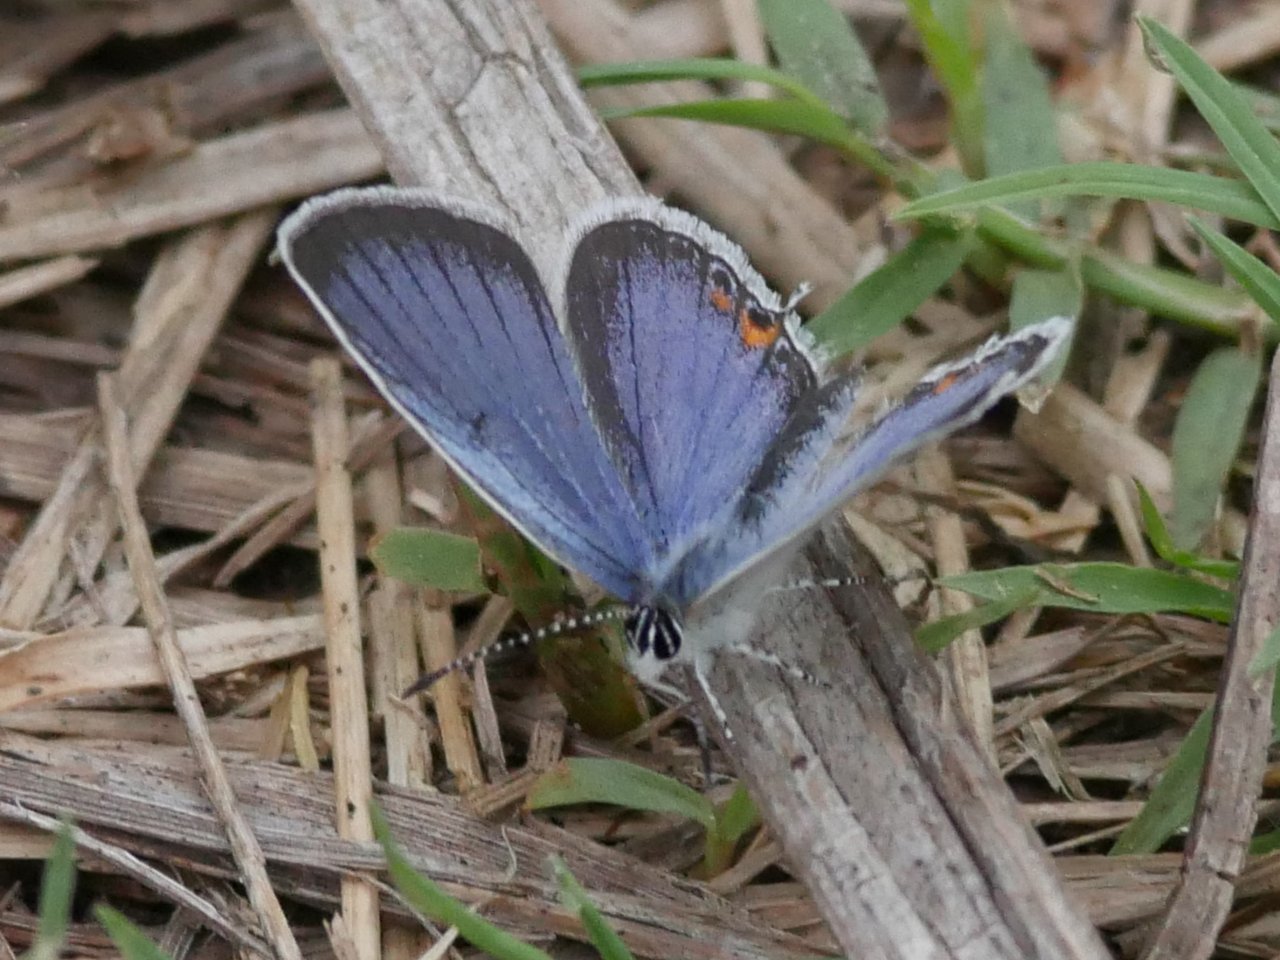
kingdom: Animalia
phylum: Arthropoda
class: Insecta
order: Lepidoptera
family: Lycaenidae
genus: Elkalyce
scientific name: Elkalyce comyntas
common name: Eastern Tailed-Blue
